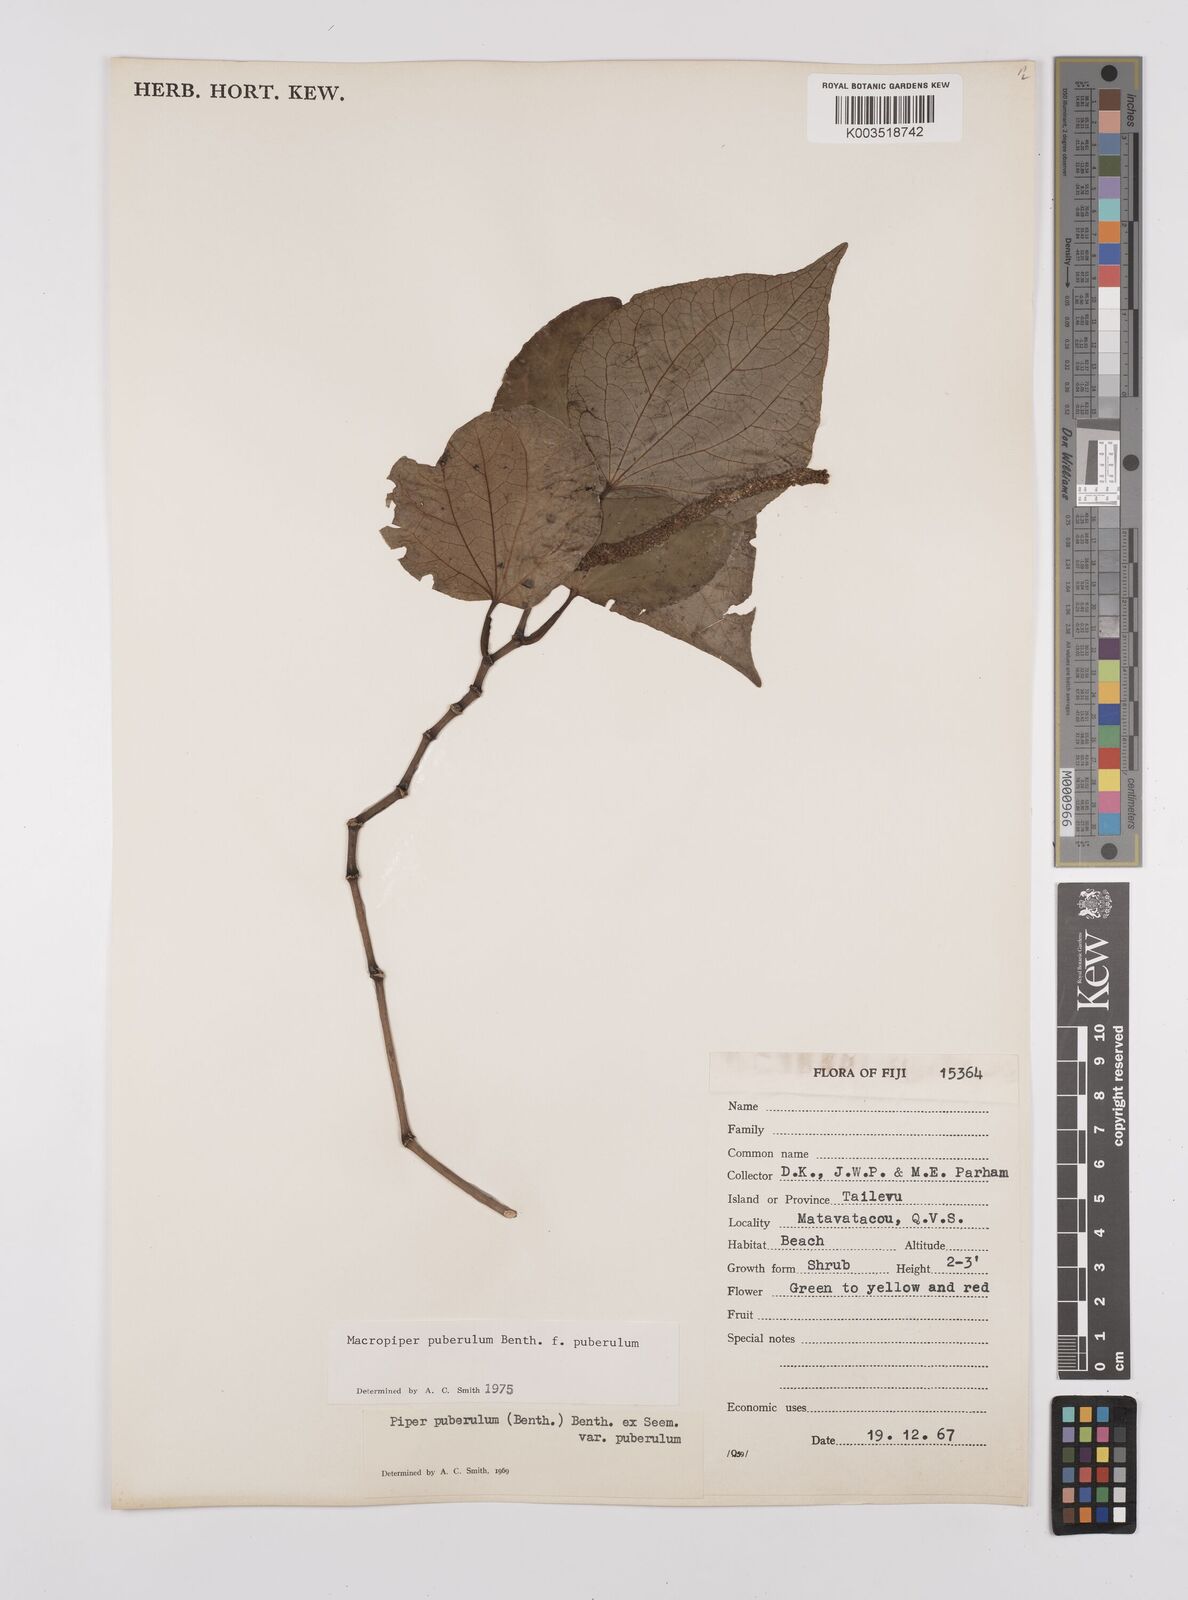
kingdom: Plantae
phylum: Tracheophyta
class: Magnoliopsida
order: Piperales
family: Piperaceae
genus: Macropiper
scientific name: Macropiper puberulum
